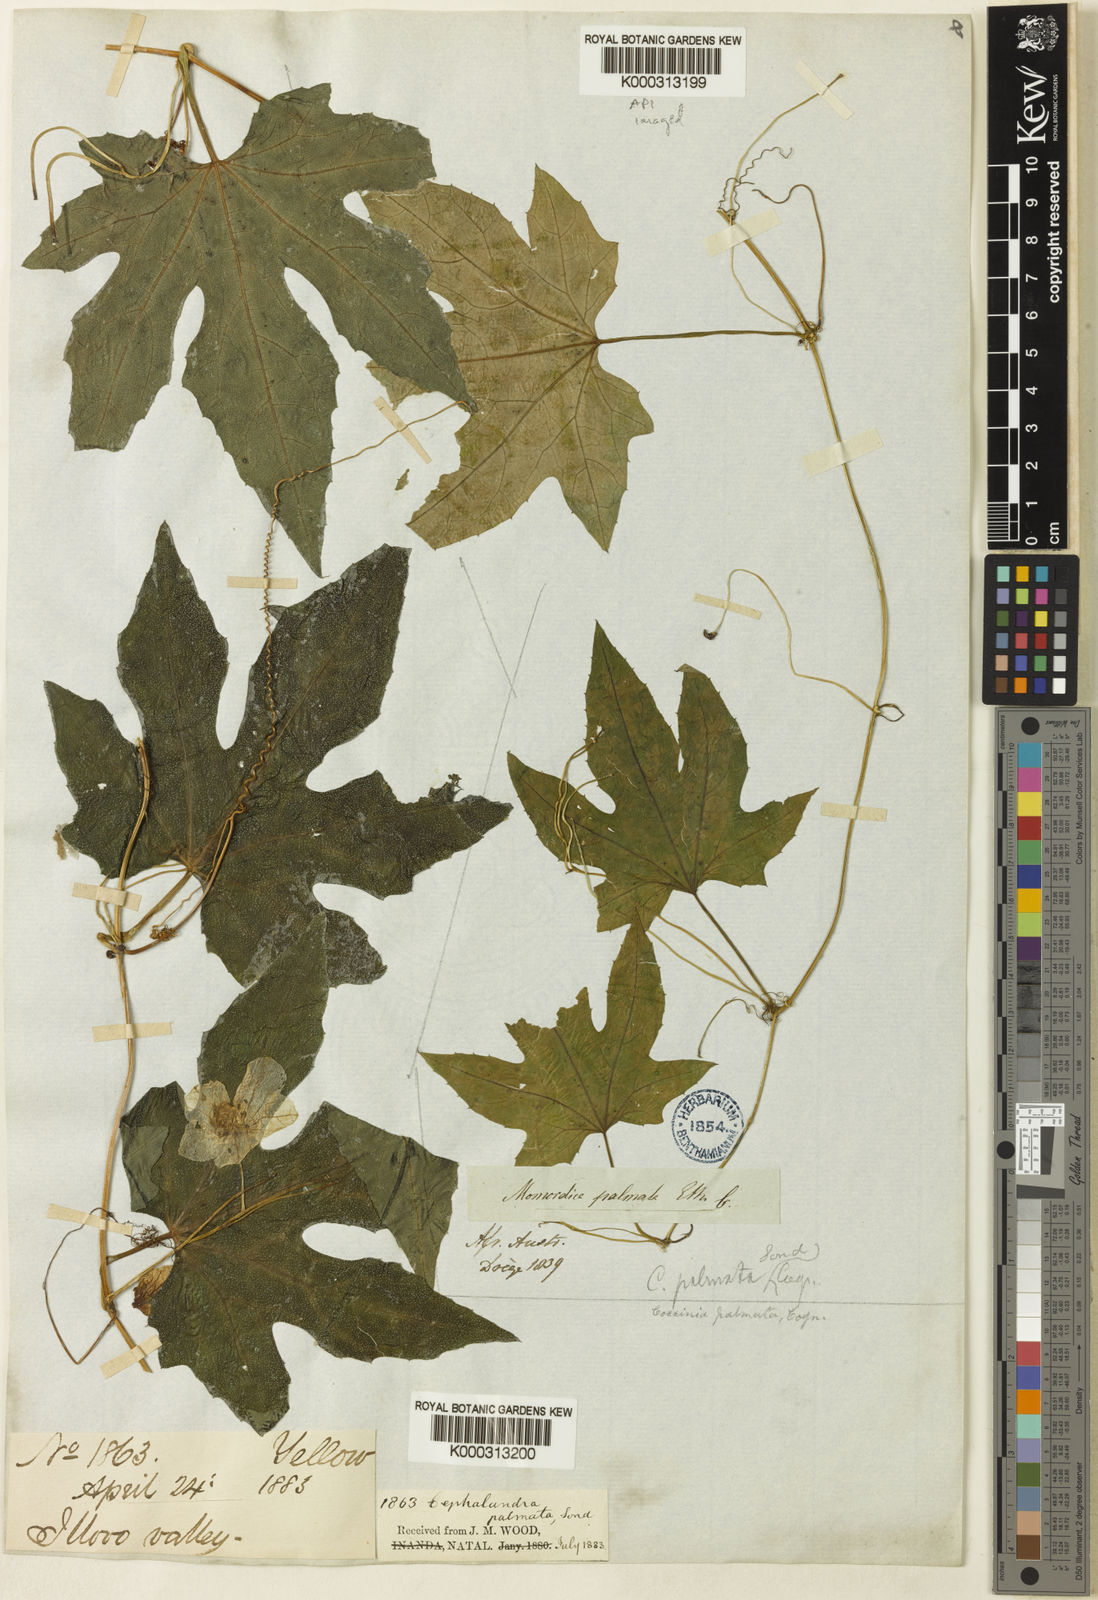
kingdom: Plantae
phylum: Tracheophyta
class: Magnoliopsida
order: Cucurbitales
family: Cucurbitaceae
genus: Coccinia
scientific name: Coccinia palmata
